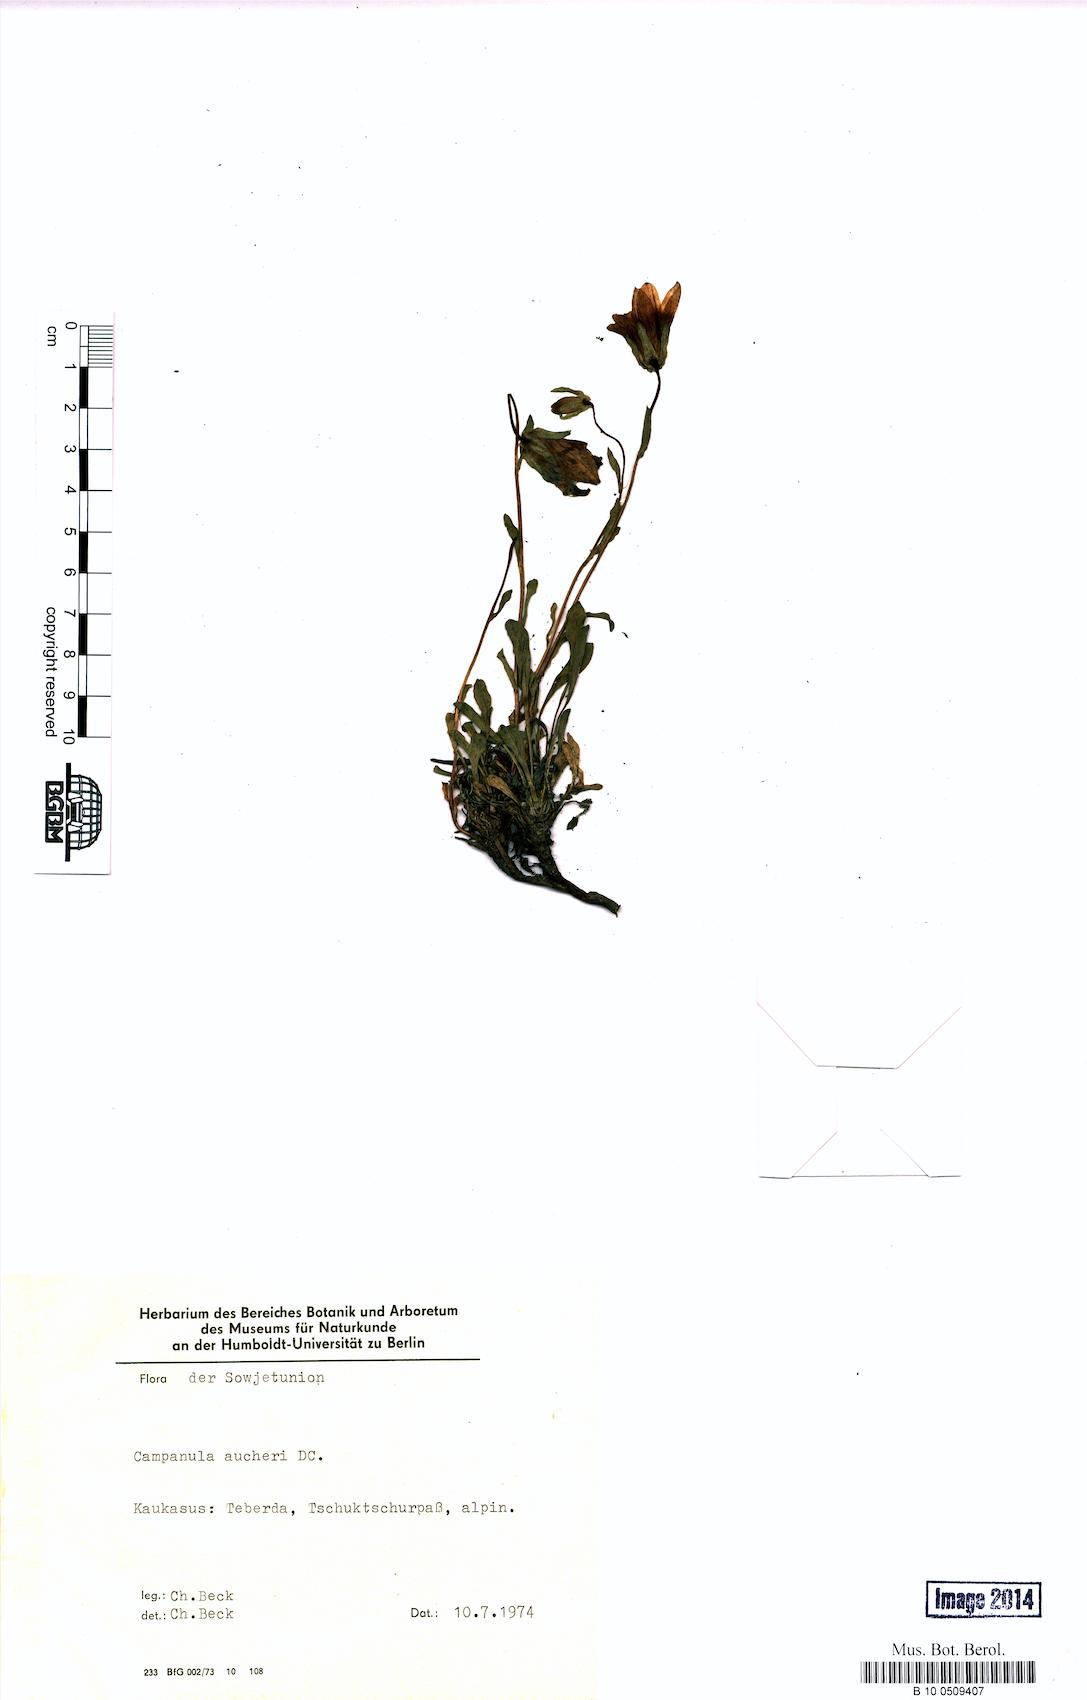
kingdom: Plantae
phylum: Tracheophyta
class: Magnoliopsida
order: Asterales
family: Campanulaceae
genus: Campanula
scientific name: Campanula saxifraga
